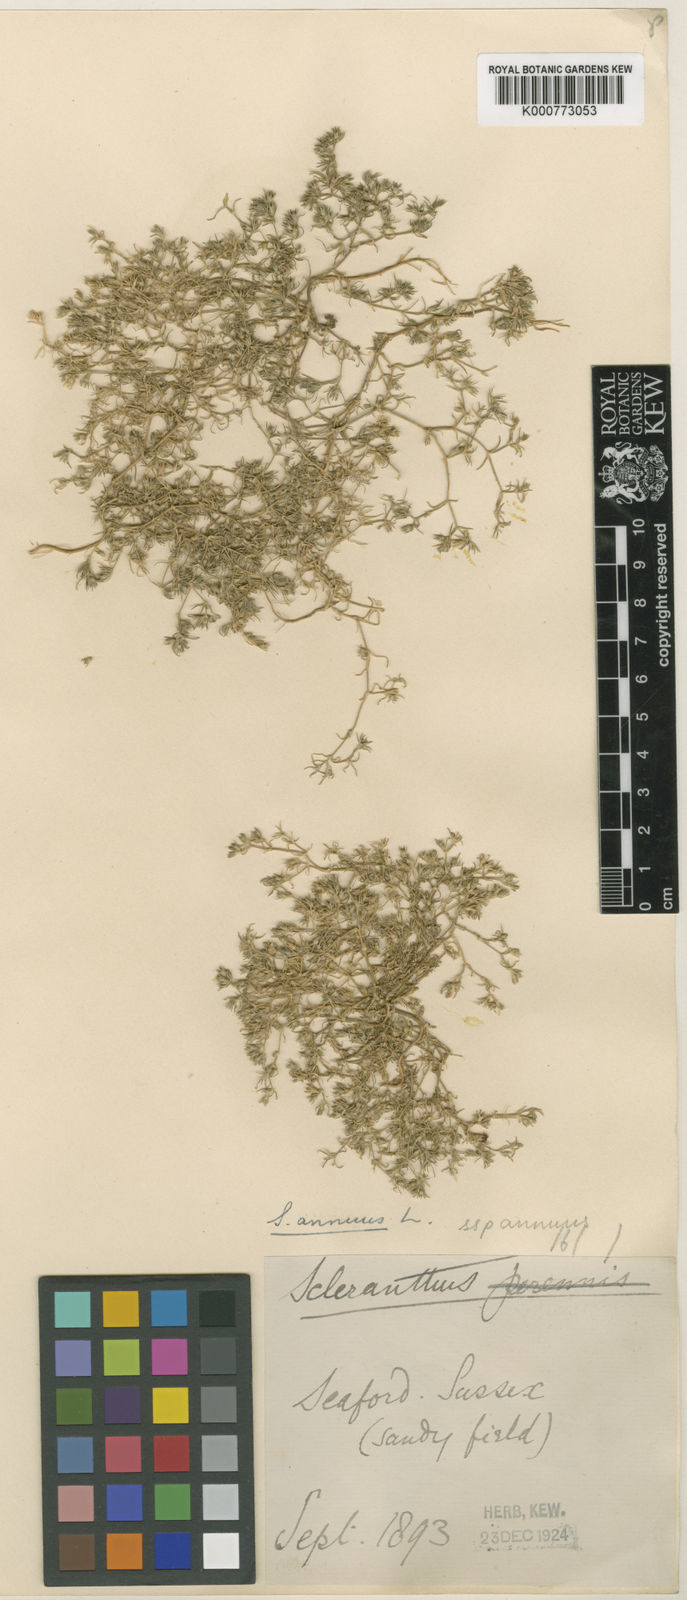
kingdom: Plantae
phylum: Tracheophyta
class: Magnoliopsida
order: Caryophyllales
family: Caryophyllaceae
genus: Scleranthus
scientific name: Scleranthus annuus
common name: Annual knawel
